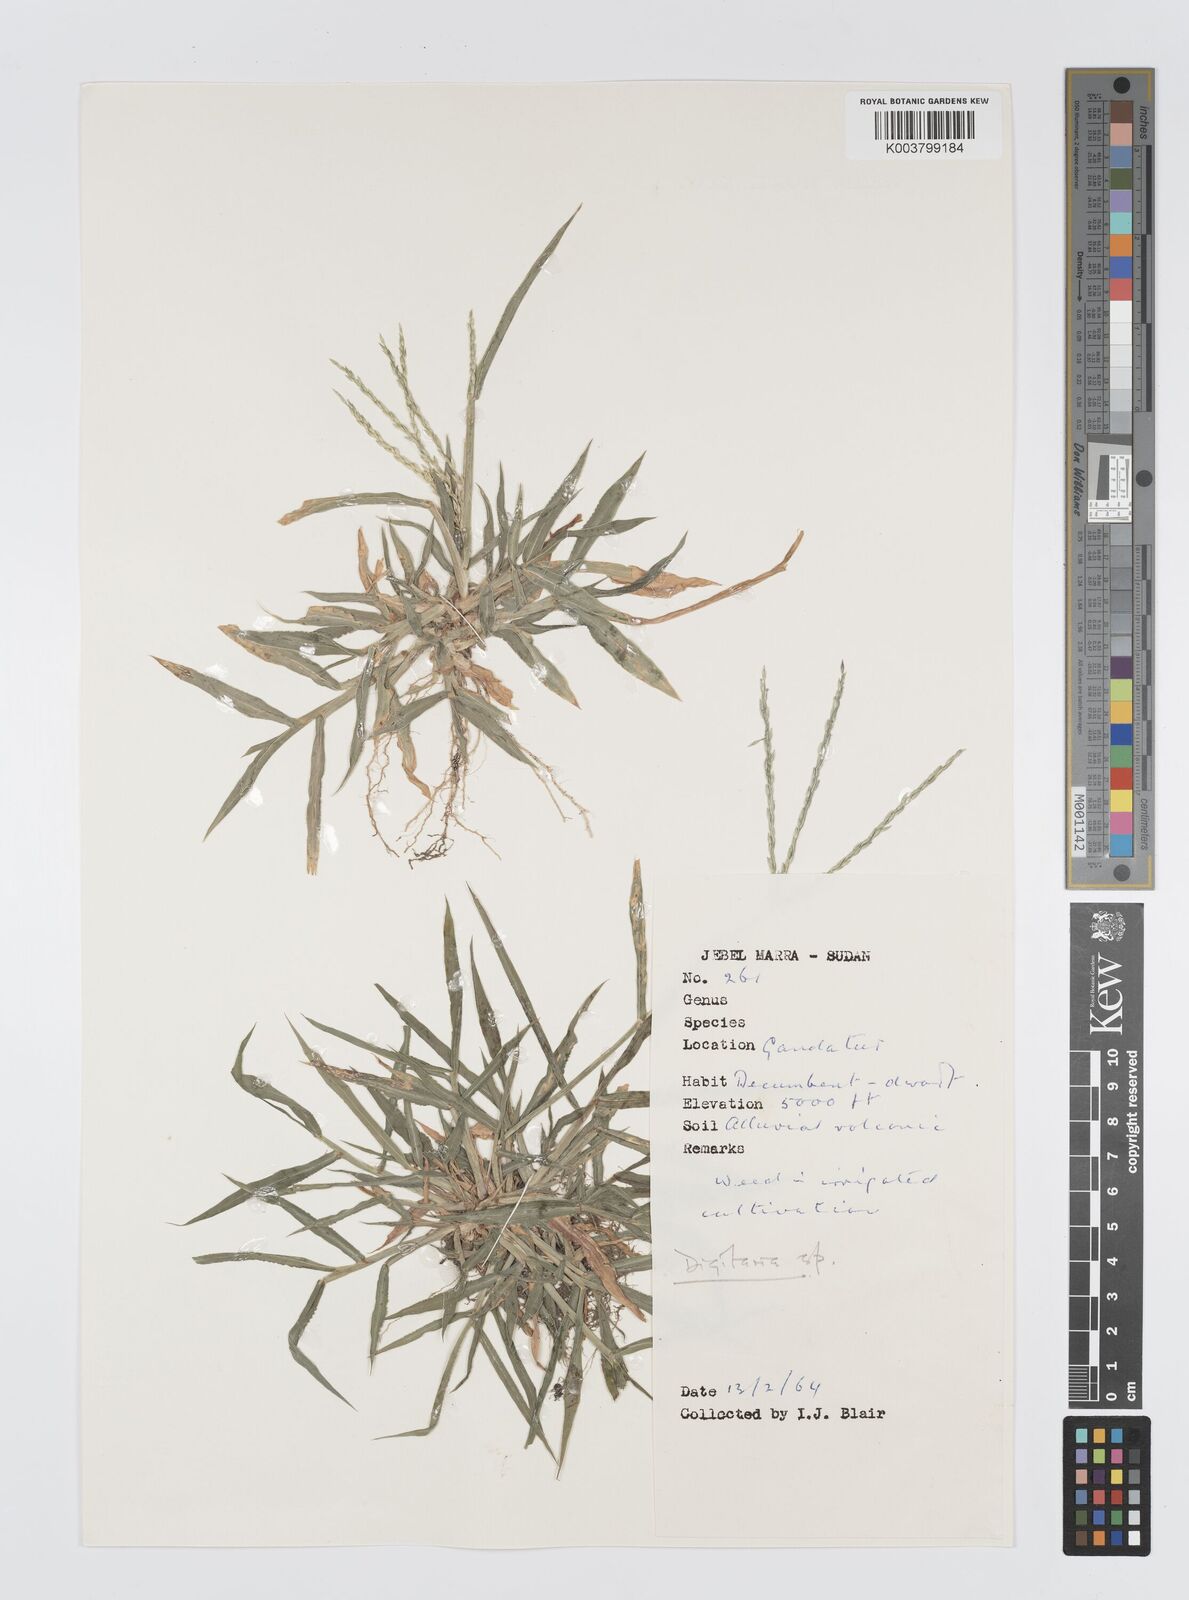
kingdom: Plantae
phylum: Tracheophyta
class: Liliopsida
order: Poales
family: Poaceae
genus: Digitaria
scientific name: Digitaria spec
